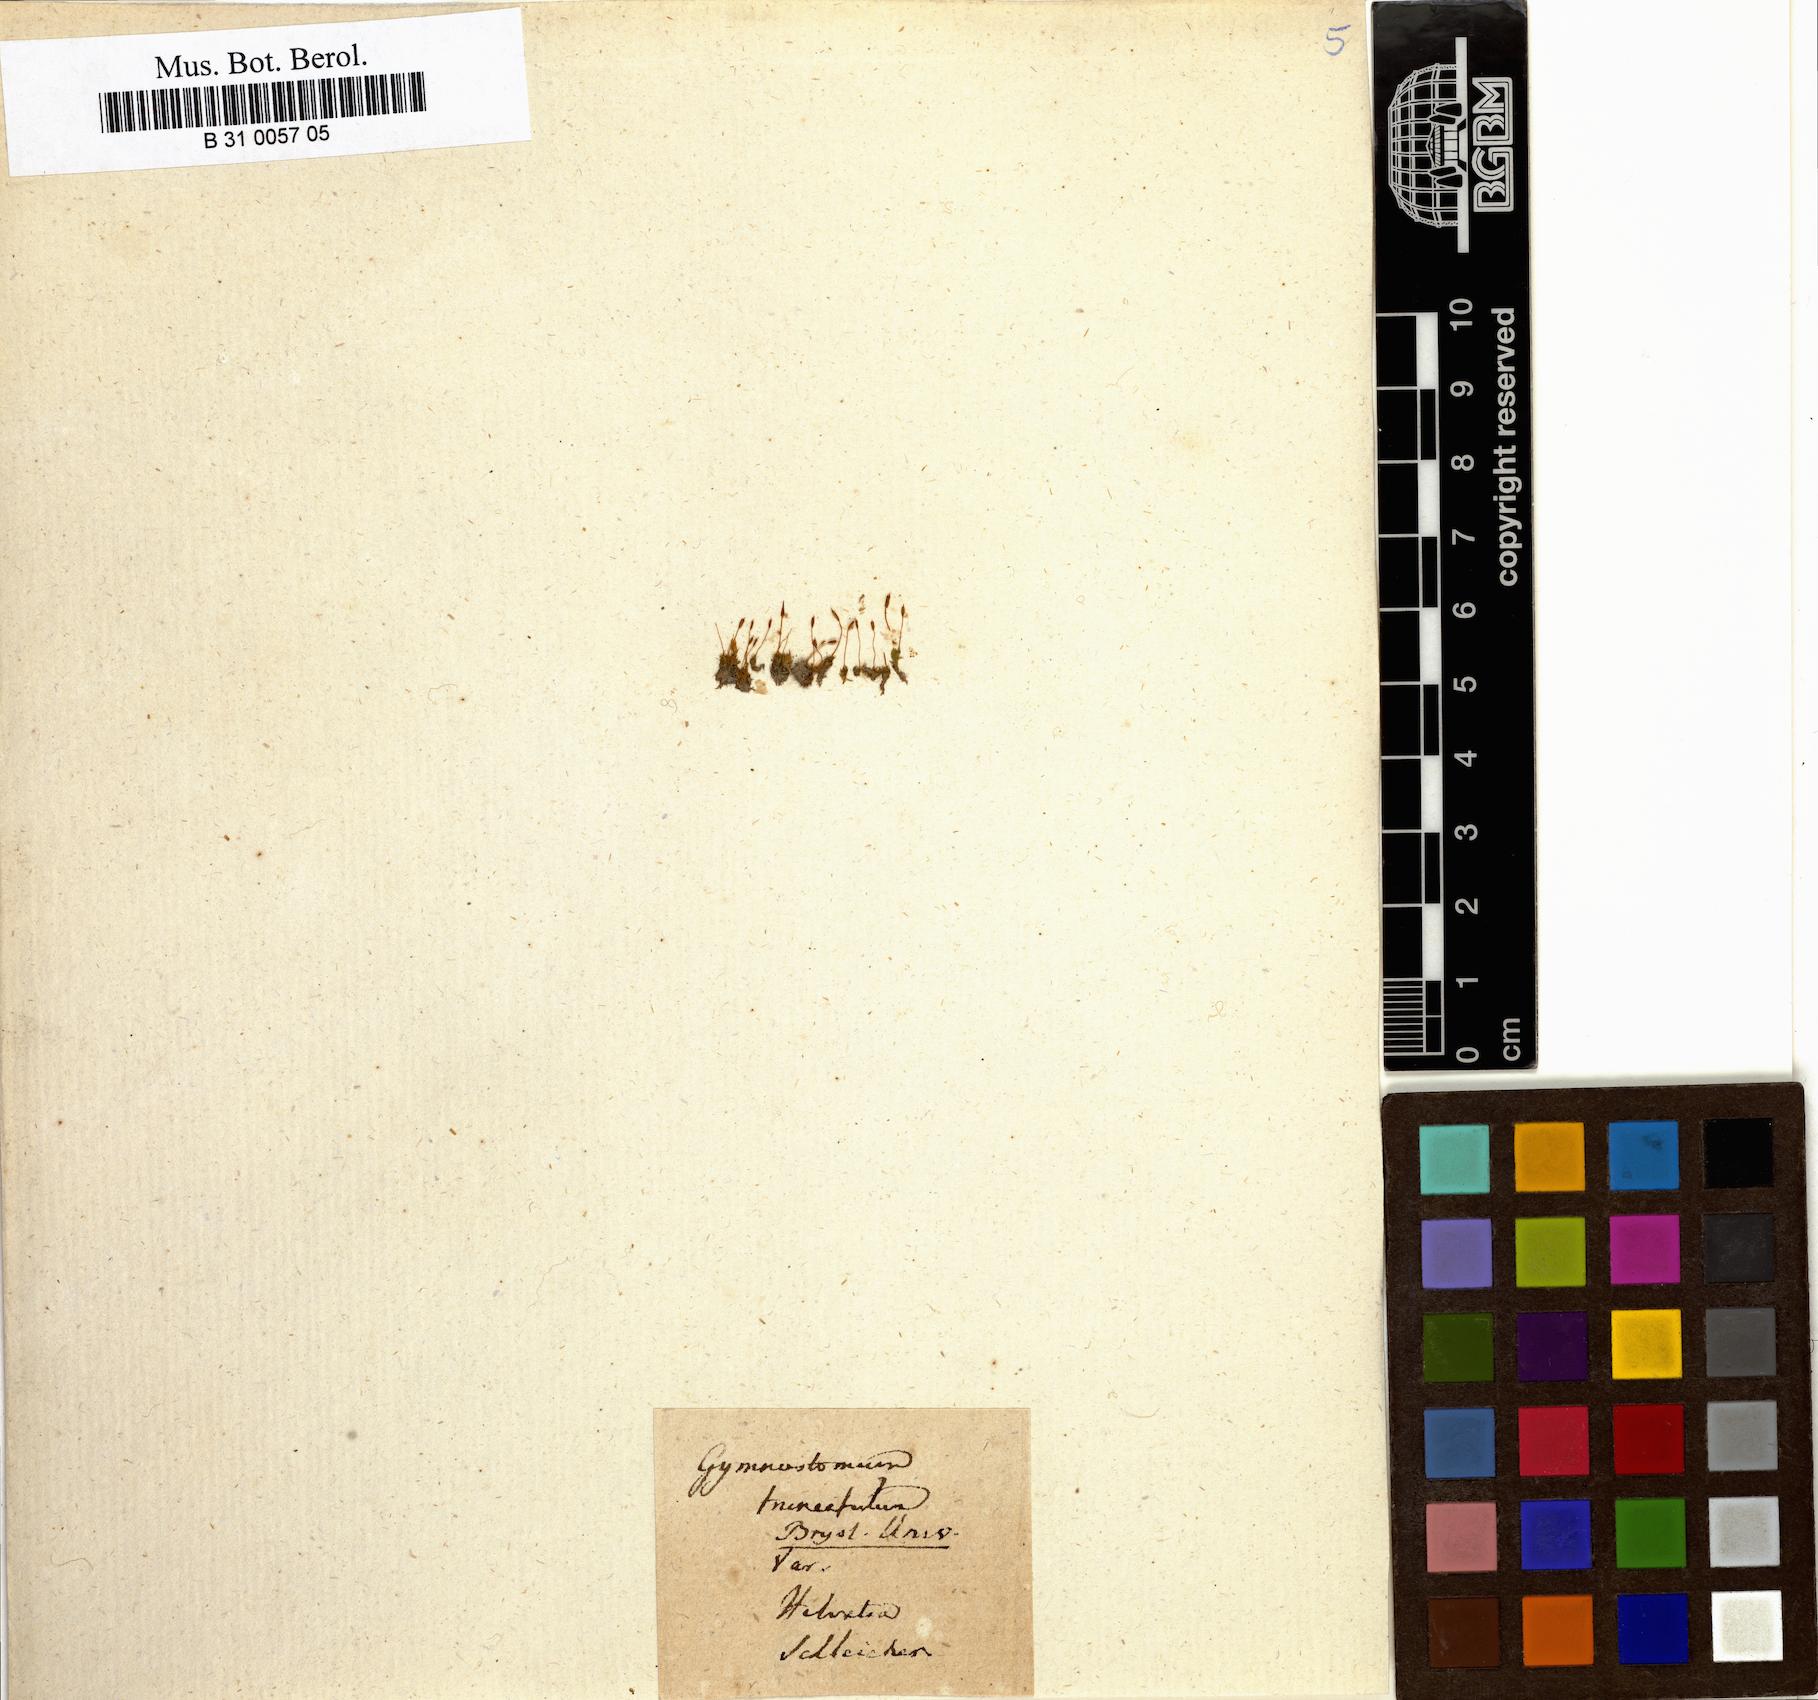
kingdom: Plantae
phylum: Bryophyta
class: Bryopsida
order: Pottiales
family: Pottiaceae
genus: Tortula
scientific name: Tortula truncata
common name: Truncated screw moss
